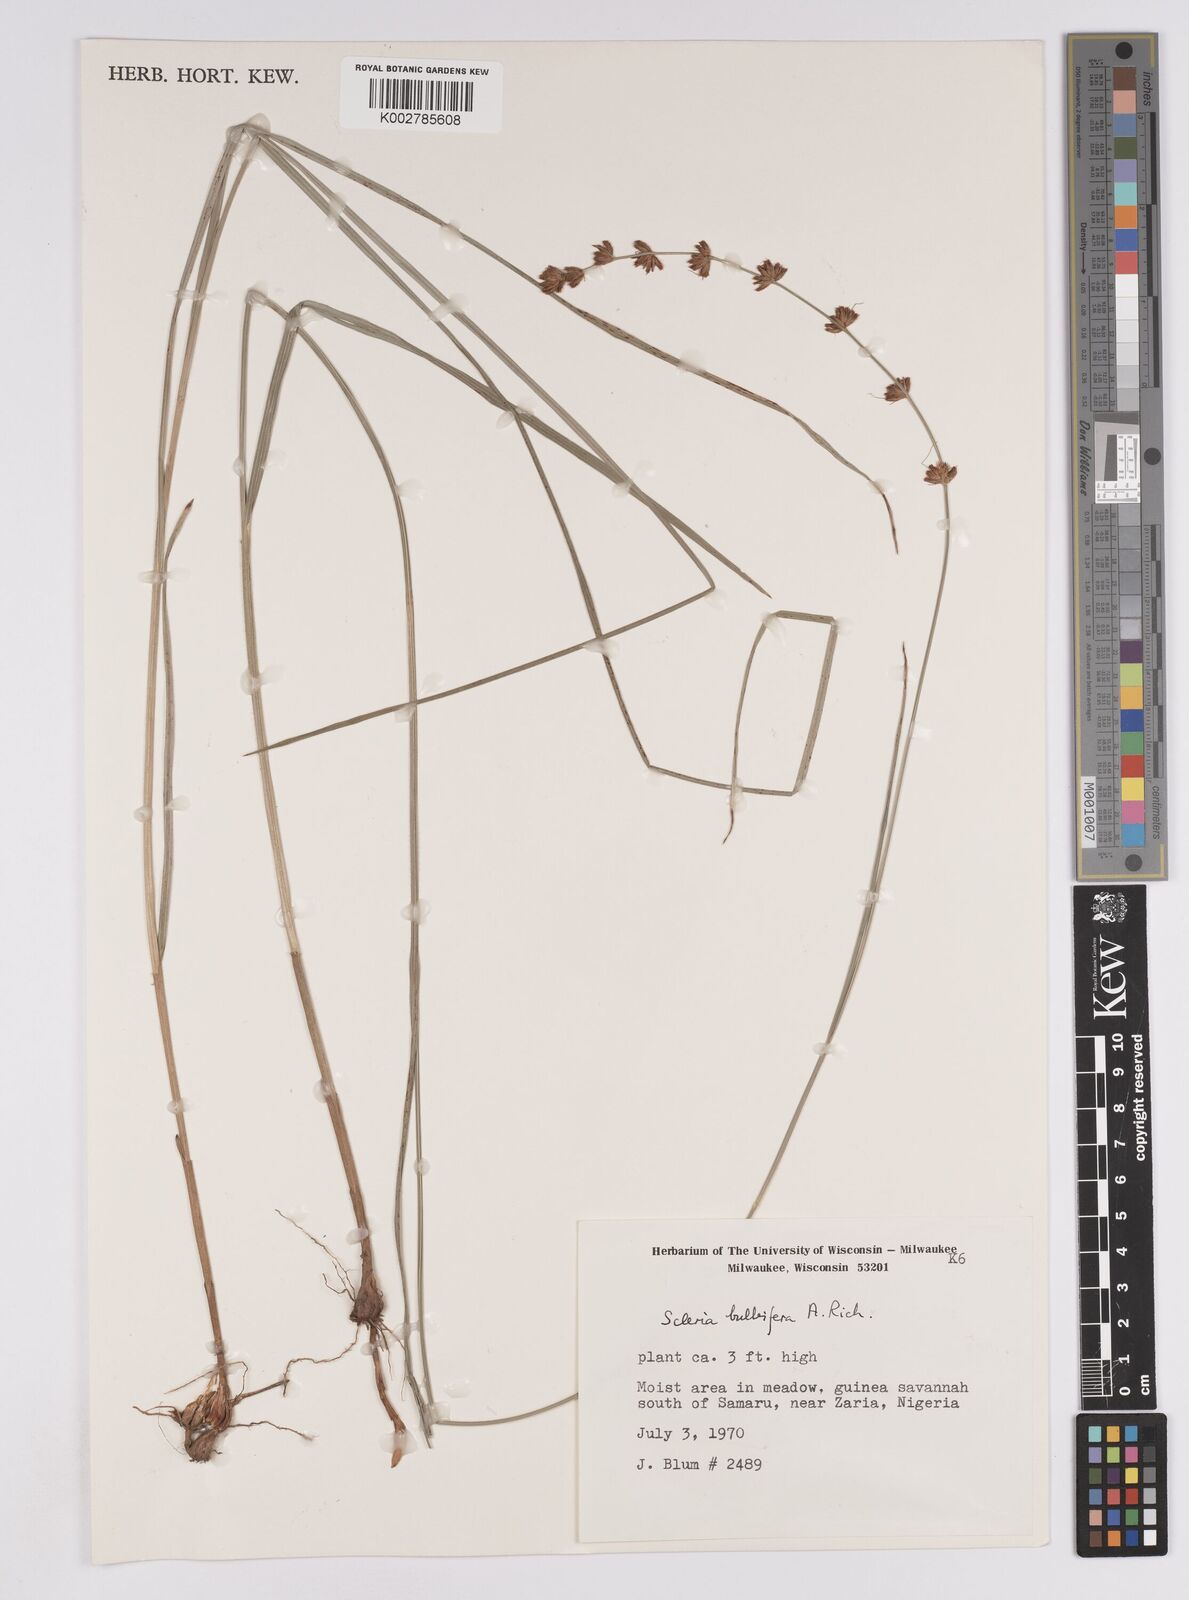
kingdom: Plantae
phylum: Tracheophyta
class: Liliopsida
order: Poales
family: Cyperaceae
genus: Scleria
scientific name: Scleria bulbifera
